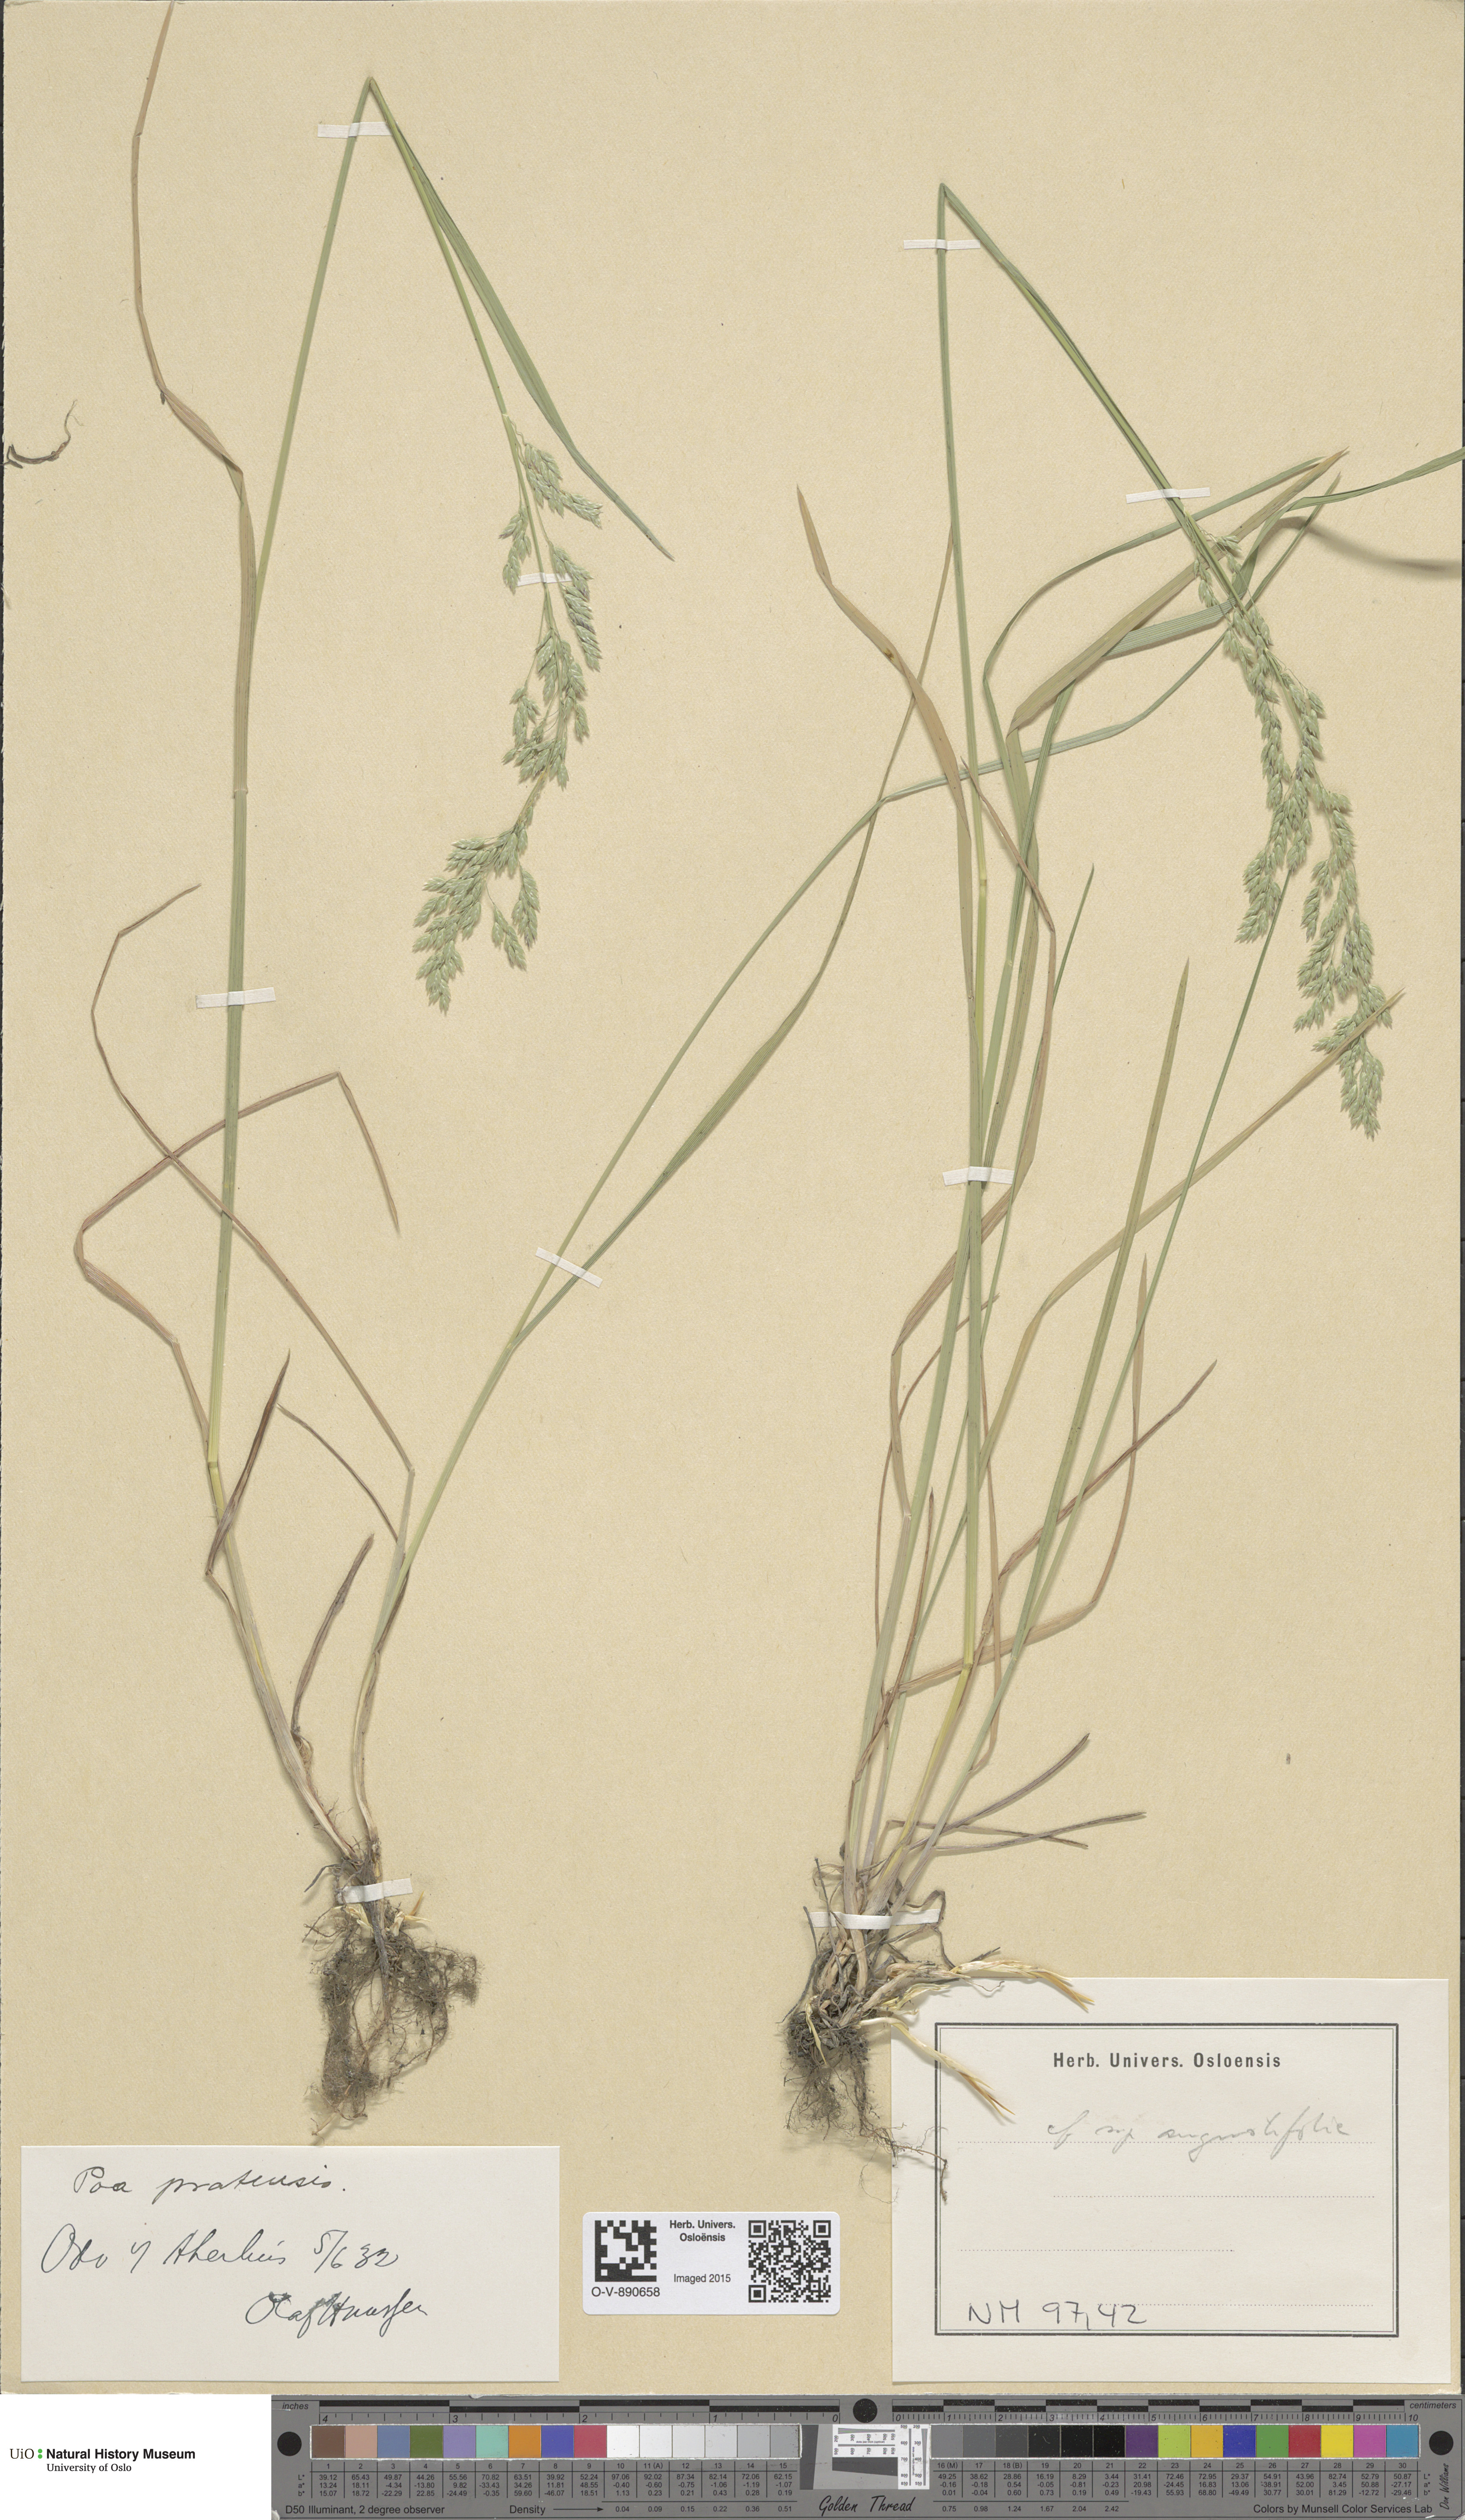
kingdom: Plantae
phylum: Tracheophyta
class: Liliopsida
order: Poales
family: Poaceae
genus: Poa
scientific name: Poa angustifolia
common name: Narrow-leaved meadow-grass
